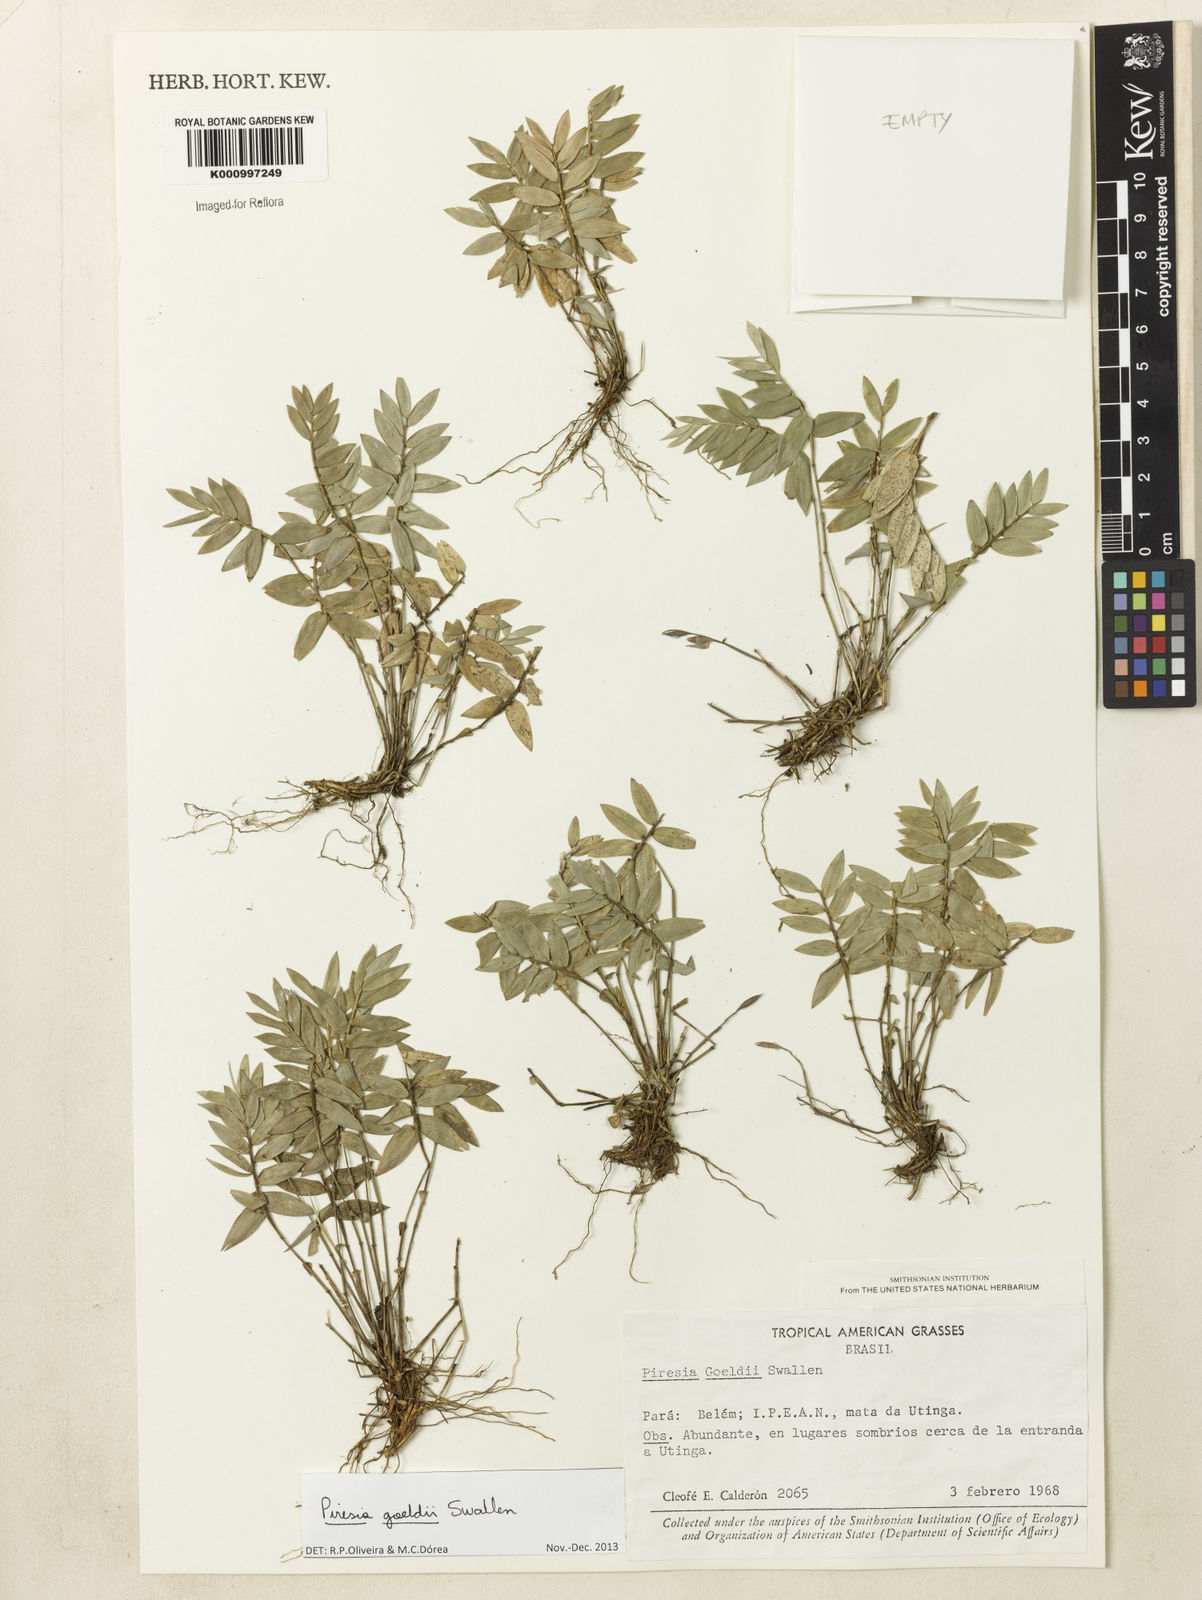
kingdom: Plantae
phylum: Tracheophyta
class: Liliopsida
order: Poales
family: Poaceae
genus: Piresia
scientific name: Piresia goeldii
